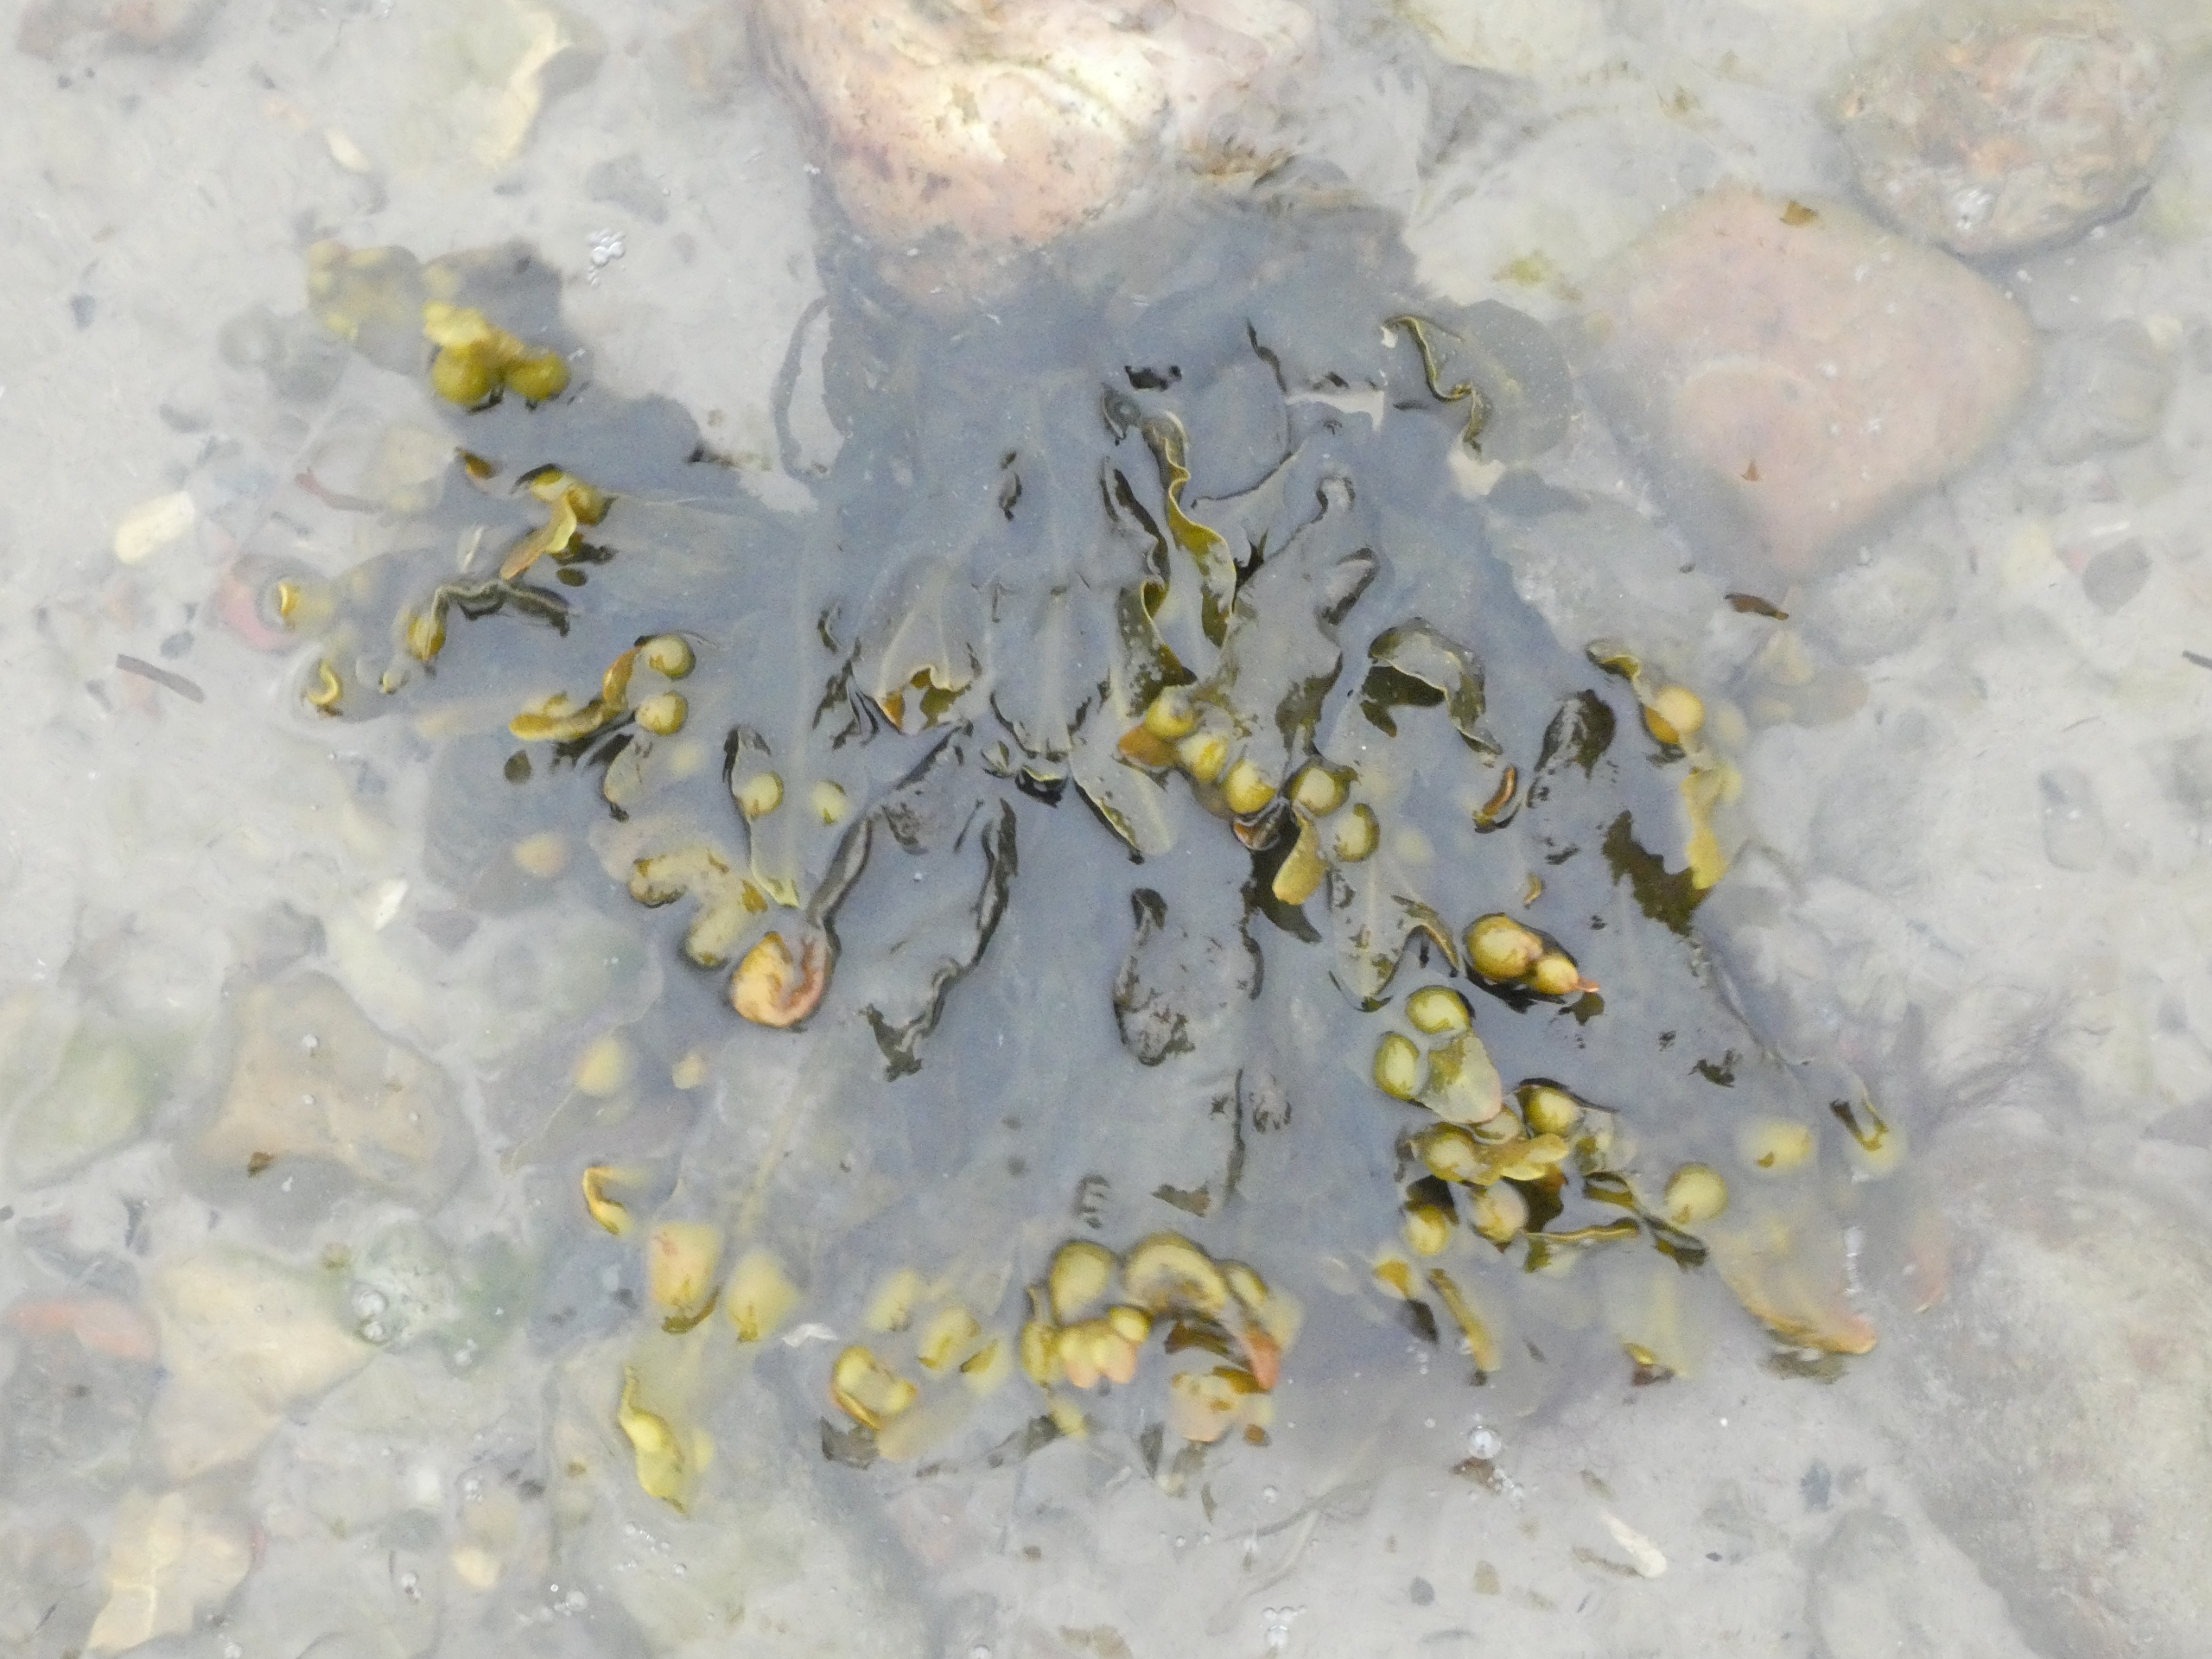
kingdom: Chromista
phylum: Ochrophyta
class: Phaeophyceae
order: Fucales
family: Fucaceae
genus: Fucus
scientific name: Fucus vesiculosus
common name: Blæretang
